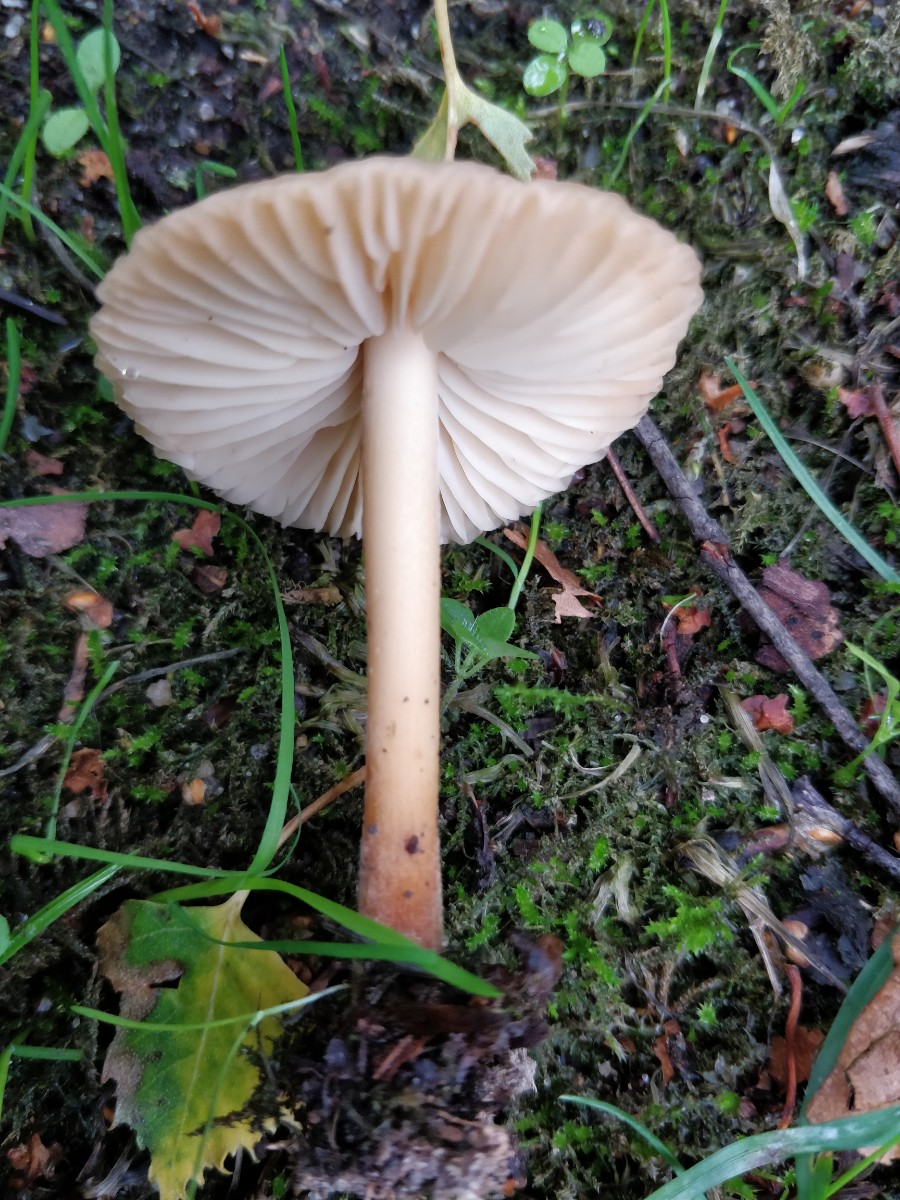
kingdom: Fungi
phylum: Basidiomycota
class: Agaricomycetes
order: Agaricales
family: Marasmiaceae
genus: Marasmius
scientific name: Marasmius oreades
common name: elledans-bruskhat
